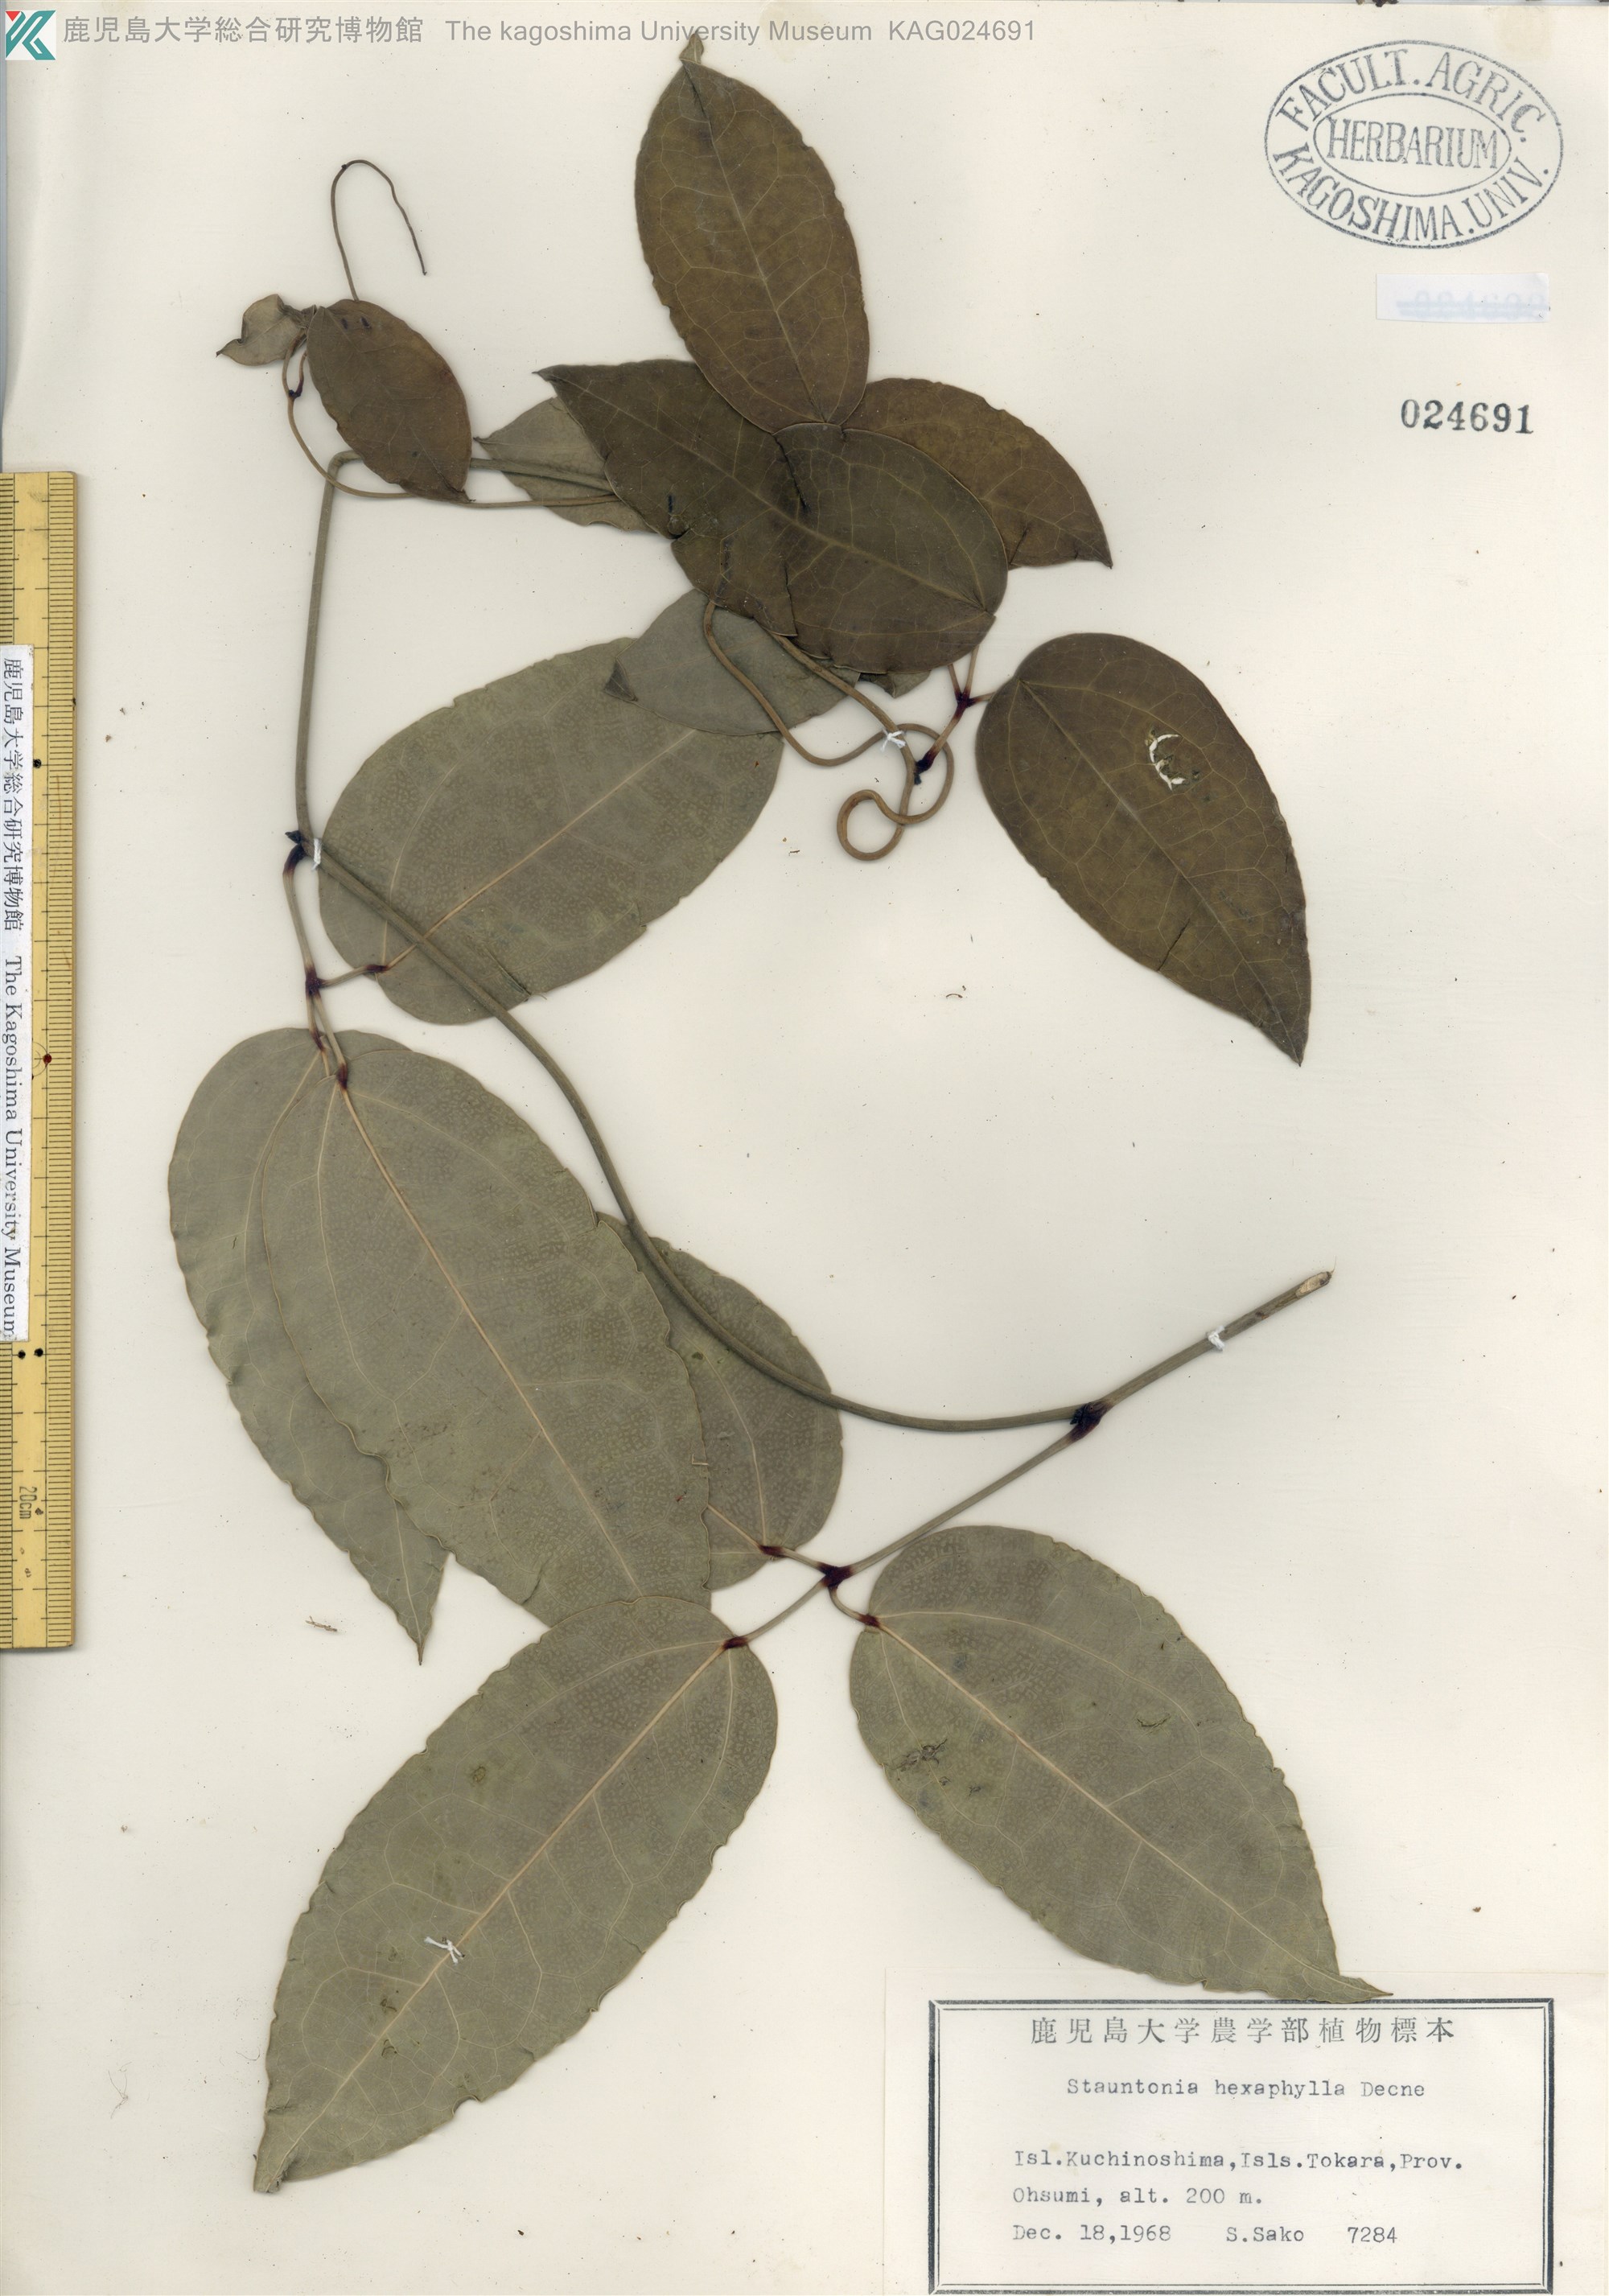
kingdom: Plantae
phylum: Tracheophyta
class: Magnoliopsida
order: Ranunculales
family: Lardizabalaceae
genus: Stauntonia
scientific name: Stauntonia hexaphylla
